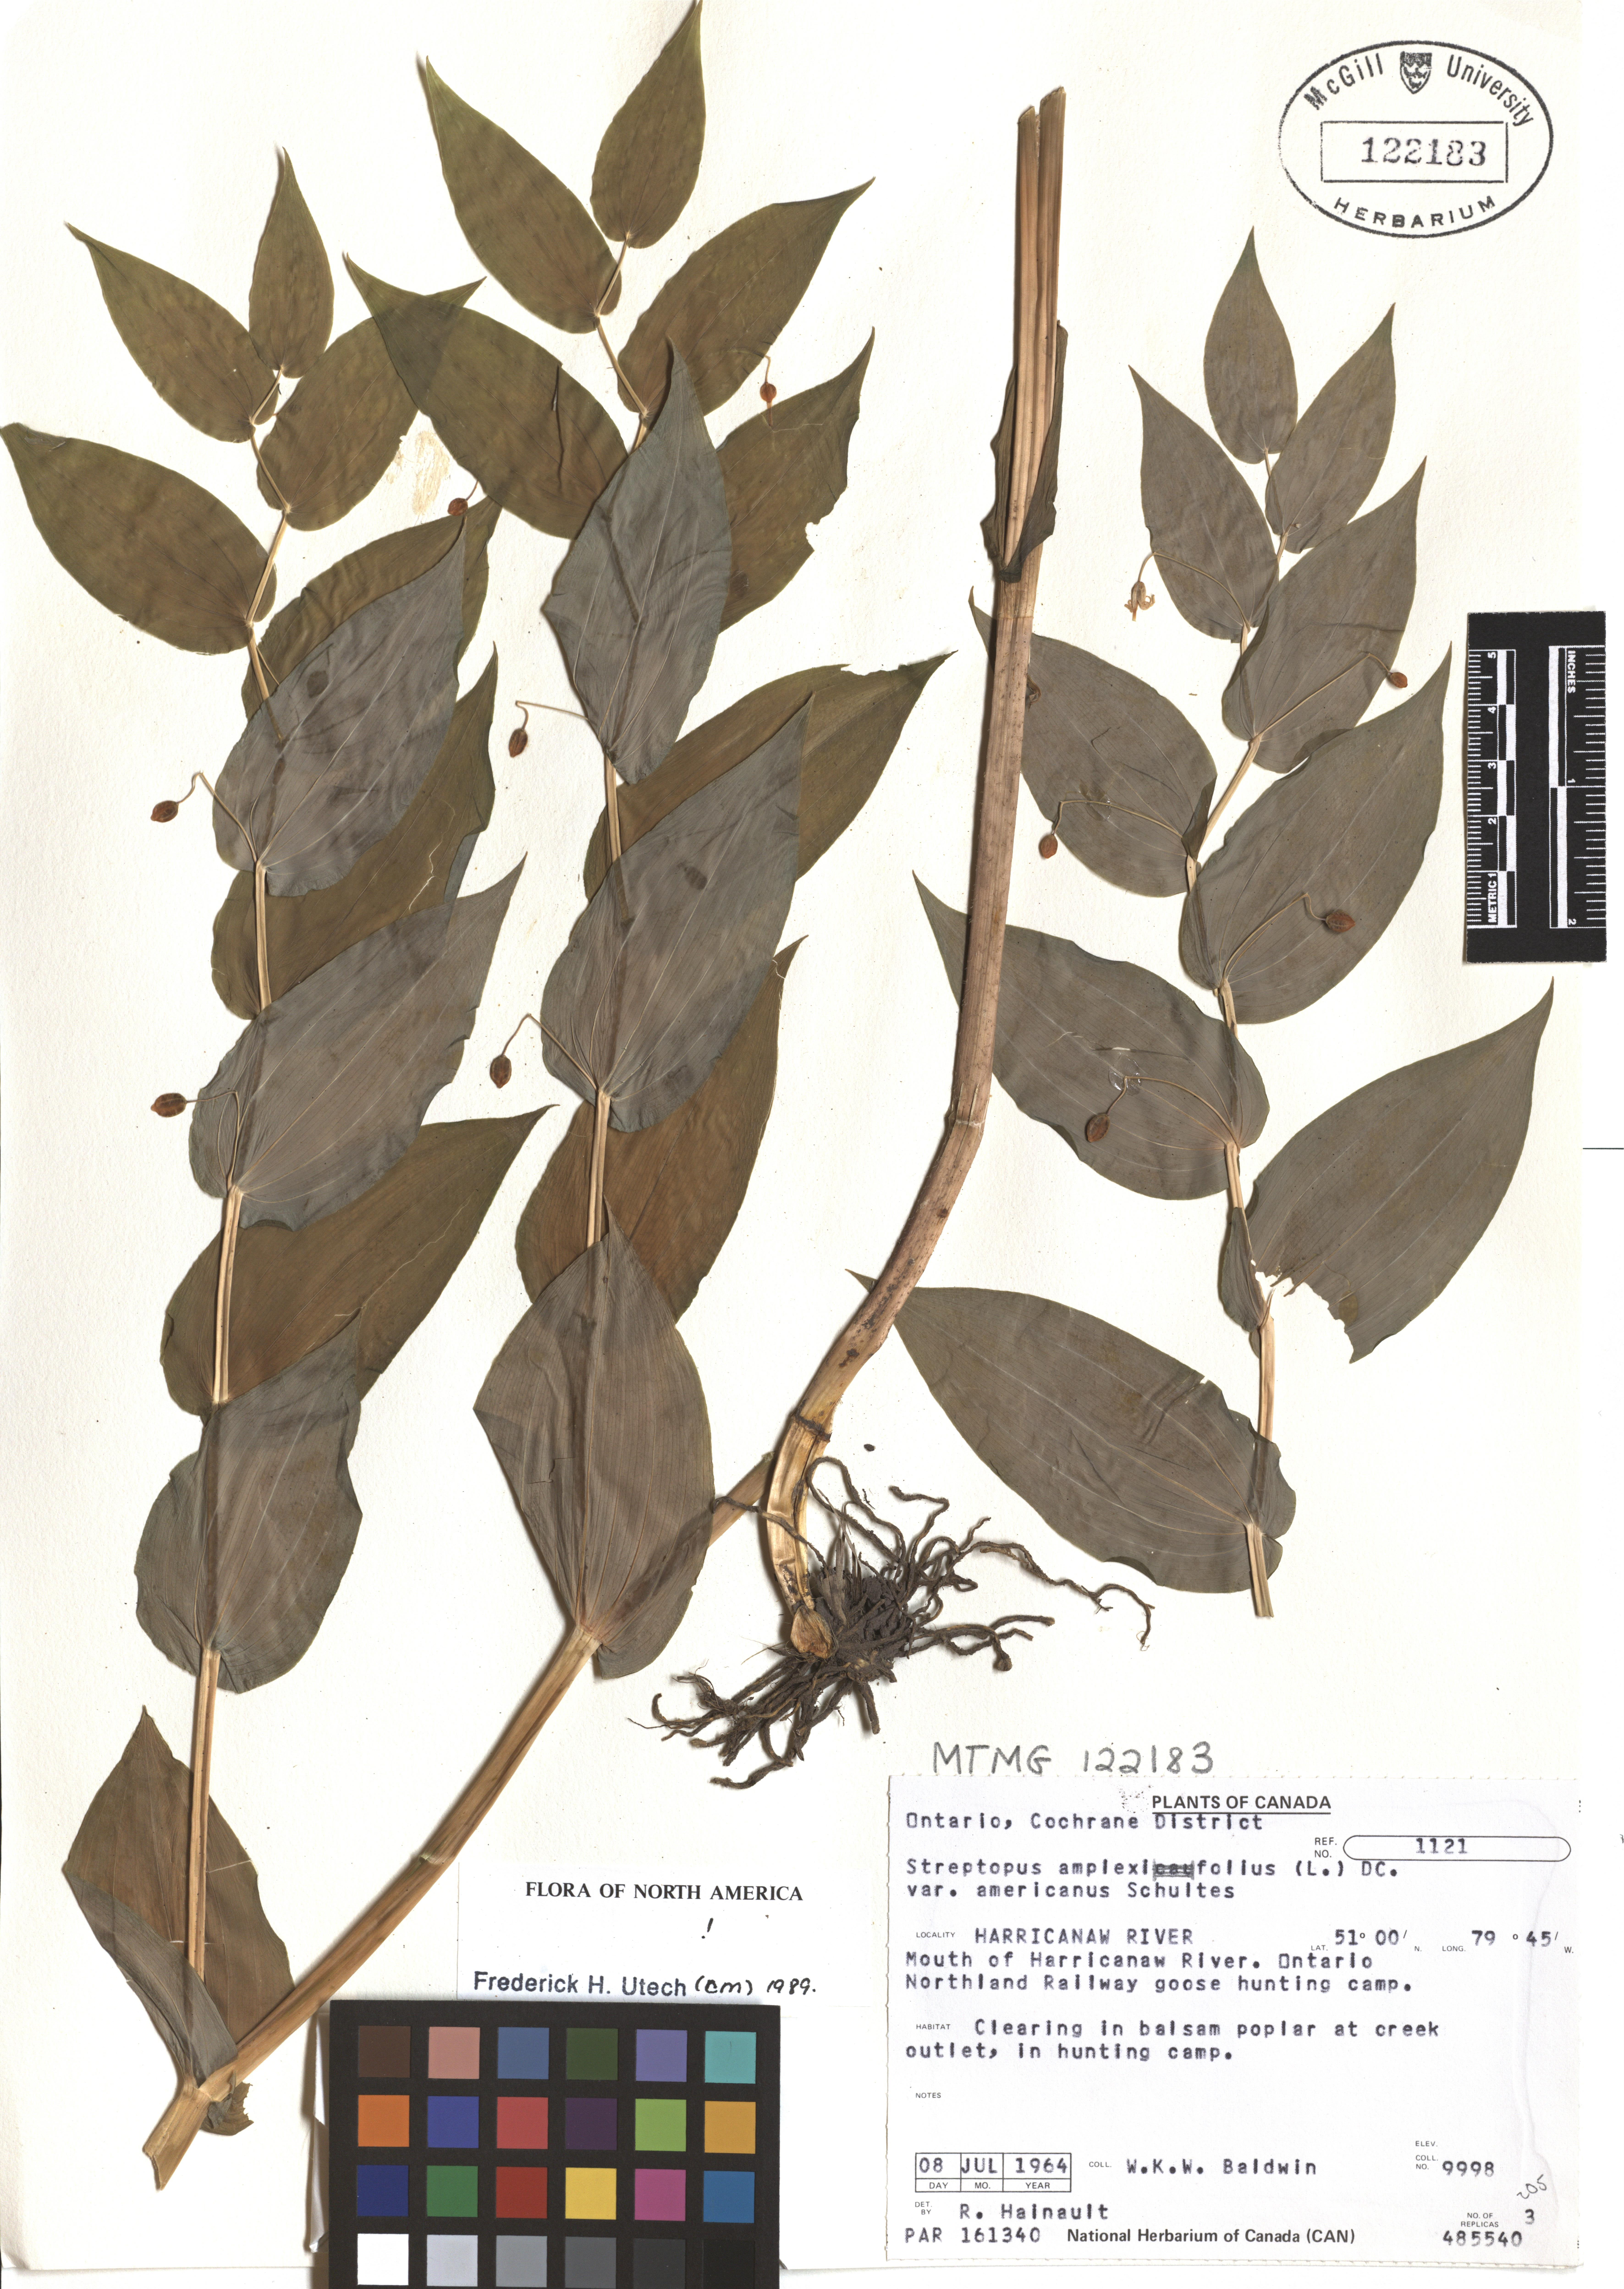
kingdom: Plantae
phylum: Tracheophyta
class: Liliopsida
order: Liliales
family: Liliaceae
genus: Streptopus
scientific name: Streptopus amplexifolius
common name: Clasp twisted stalk
